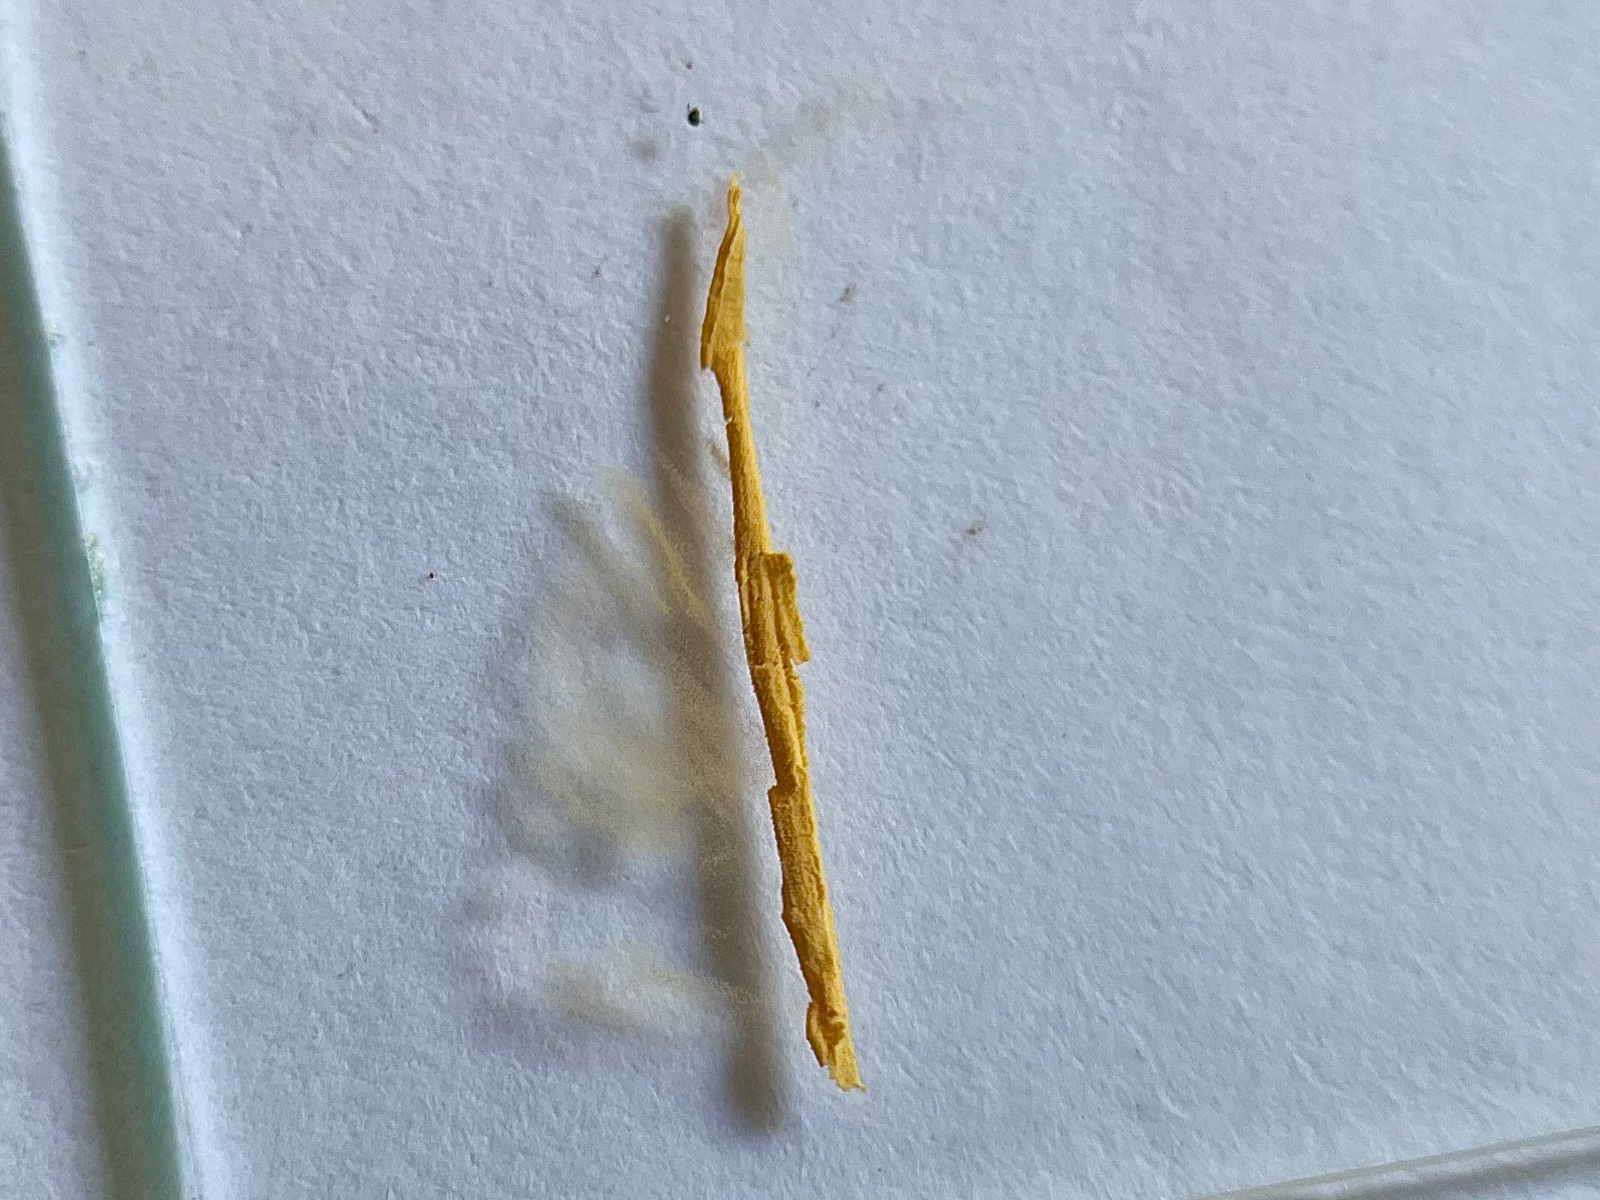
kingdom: Fungi
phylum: Basidiomycota
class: Agaricomycetes
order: Russulales
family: Russulaceae
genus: Russula
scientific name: Russula odorata
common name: duft-skørhat
